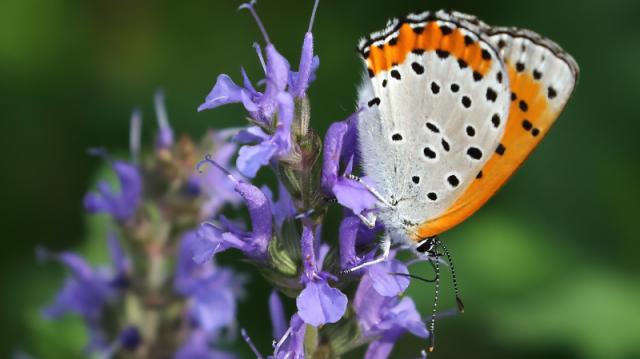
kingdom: Animalia
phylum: Arthropoda
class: Insecta
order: Lepidoptera
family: Sesiidae
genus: Sesia
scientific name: Sesia Lycaena hyllus
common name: Bronze Copper
